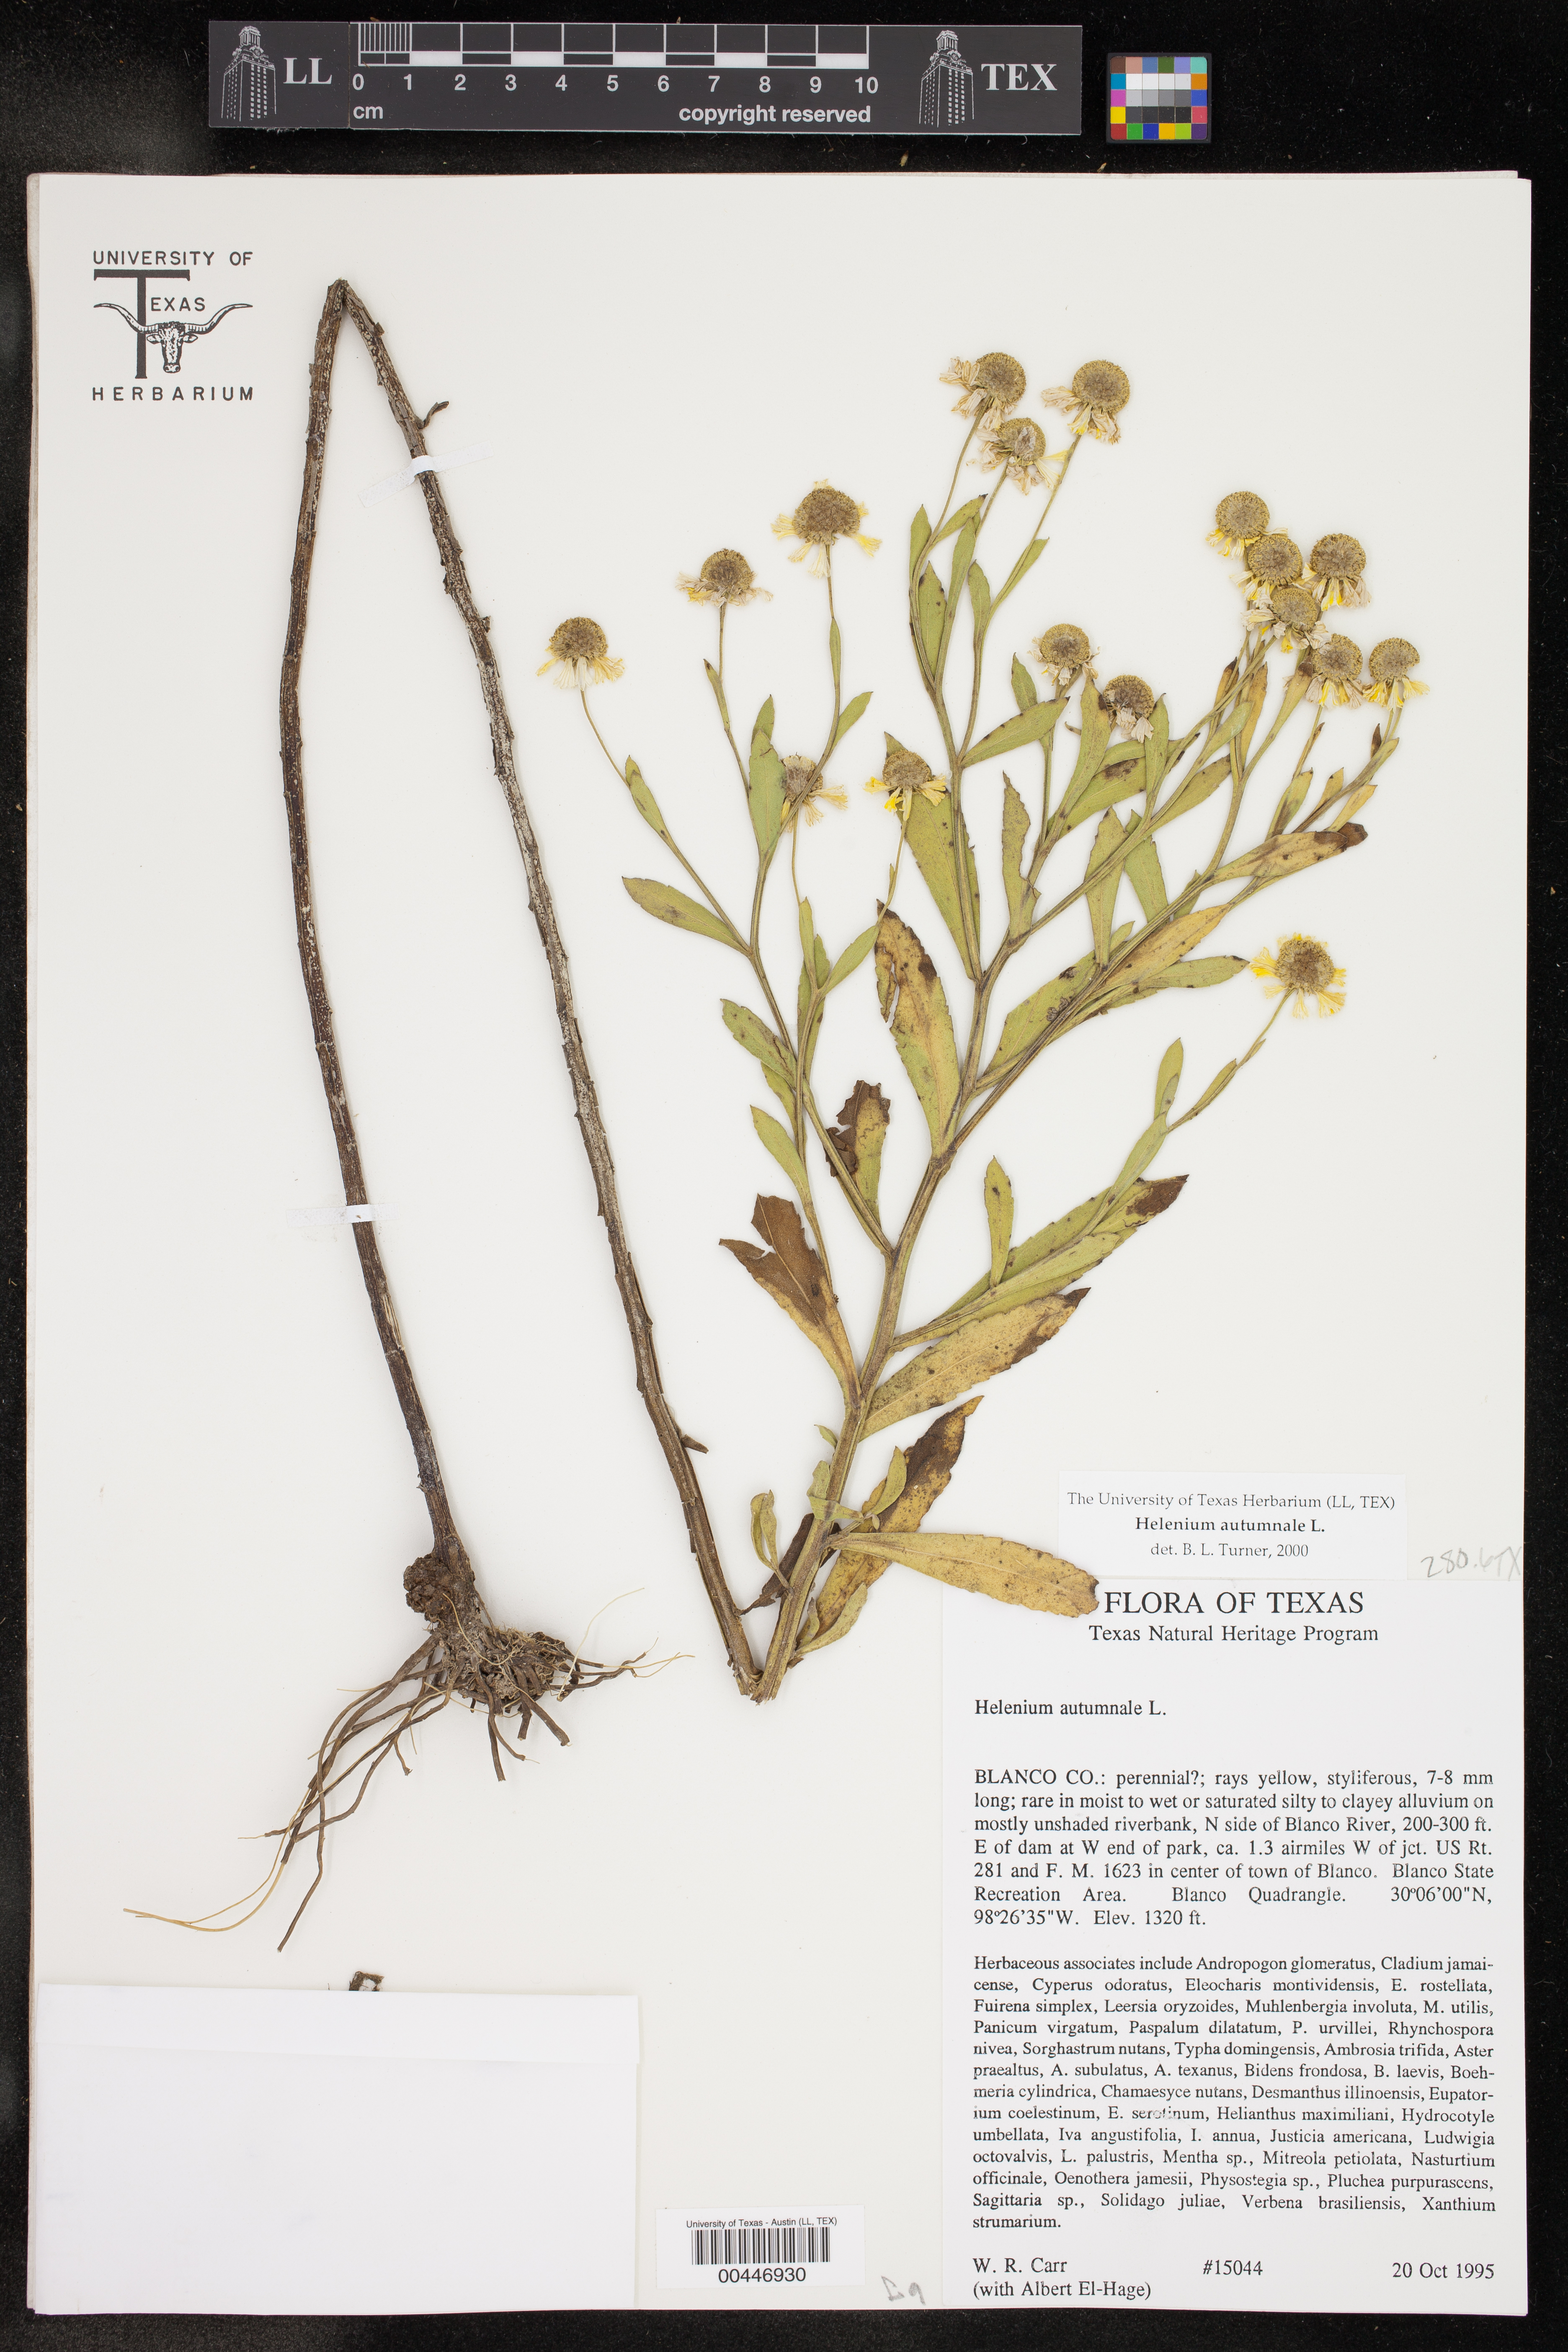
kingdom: Plantae
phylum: Tracheophyta
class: Magnoliopsida
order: Asterales
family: Asteraceae
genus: Helenium
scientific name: Helenium autumnale
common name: Sneezeweed
